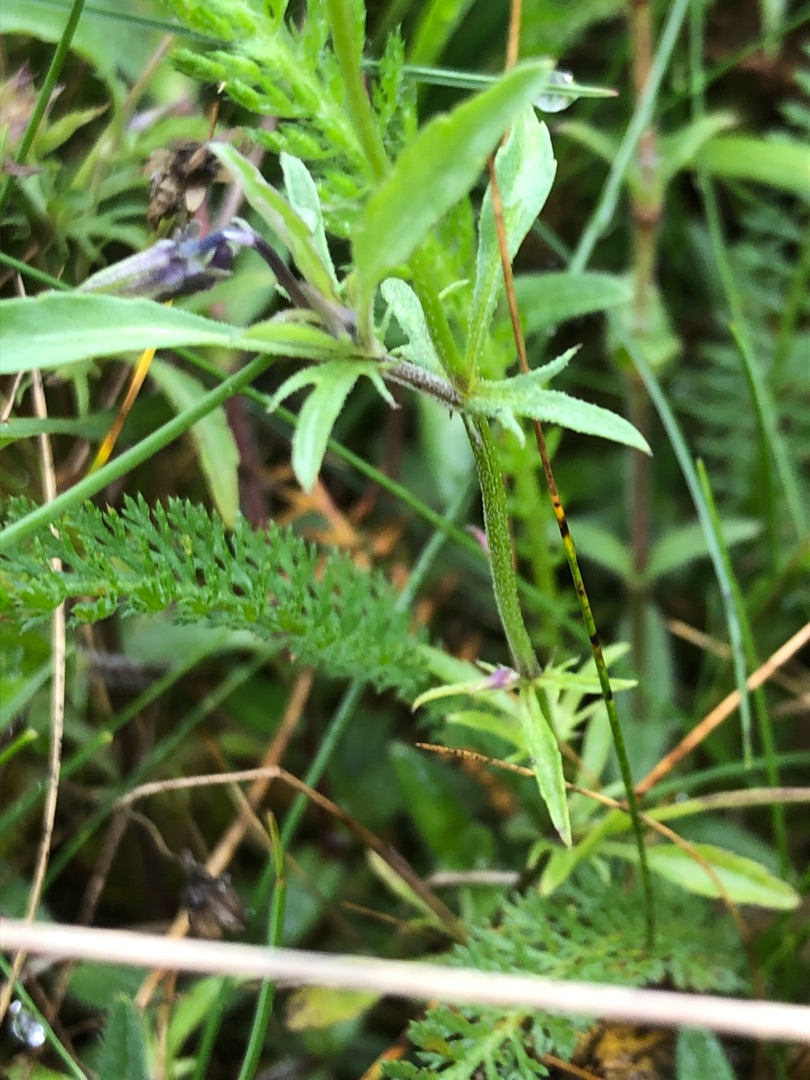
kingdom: Plantae
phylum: Tracheophyta
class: Magnoliopsida
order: Malpighiales
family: Violaceae
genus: Viola
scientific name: Viola tricolor
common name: Stedmoderblomst
